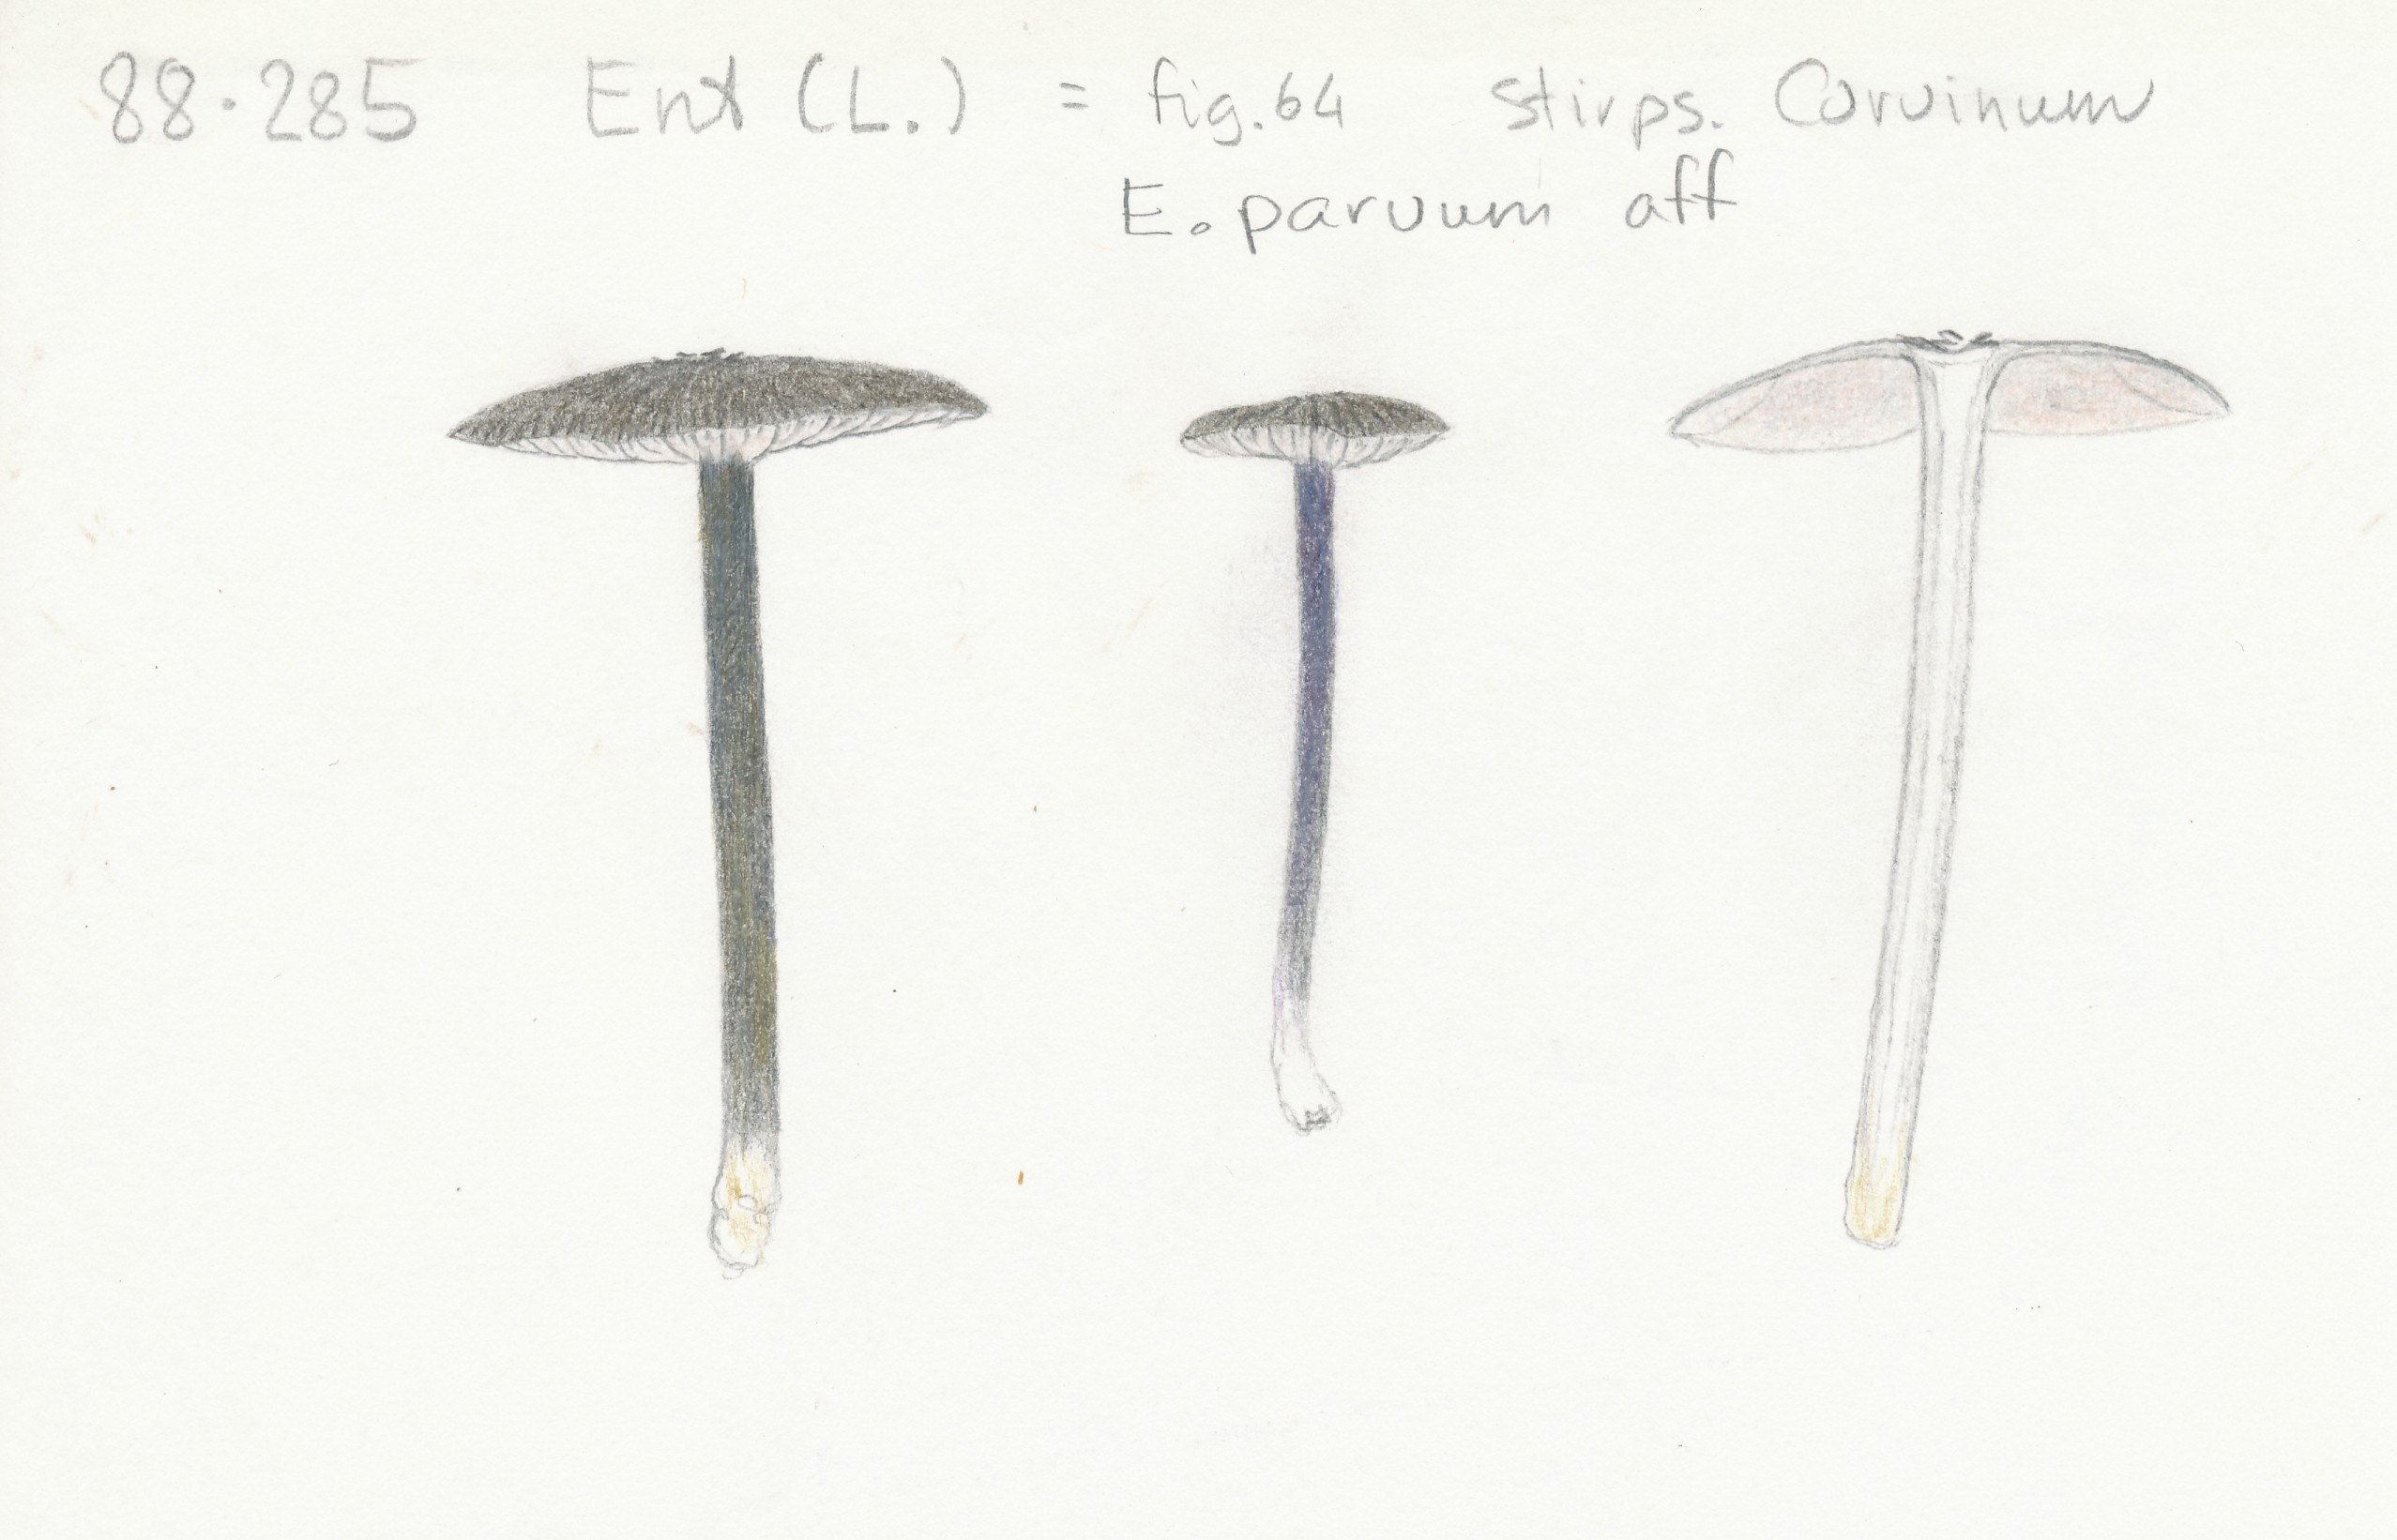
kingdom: Fungi
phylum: Basidiomycota
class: Agaricomycetes
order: Agaricales
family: Entolomataceae
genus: Entoloma
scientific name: Entoloma
